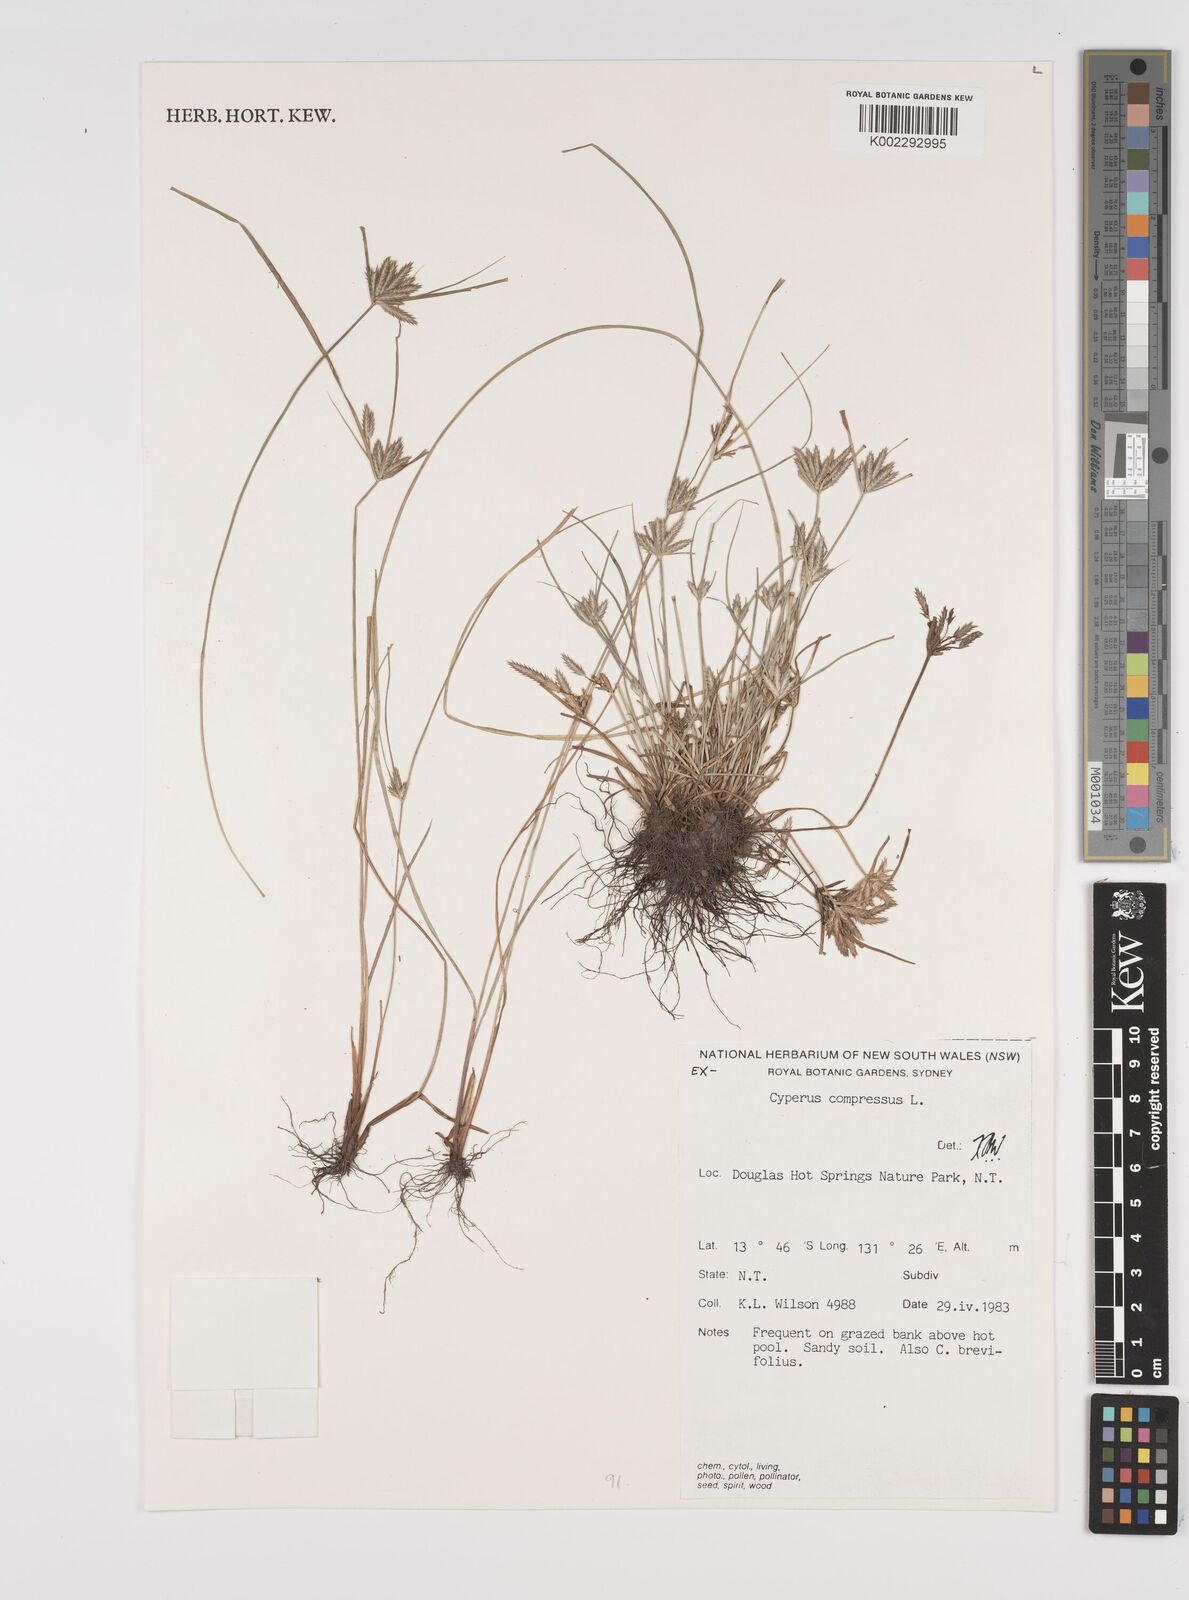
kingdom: Plantae
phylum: Tracheophyta
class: Liliopsida
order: Poales
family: Cyperaceae
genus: Cyperus
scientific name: Cyperus compressus
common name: Poorland flatsedge
